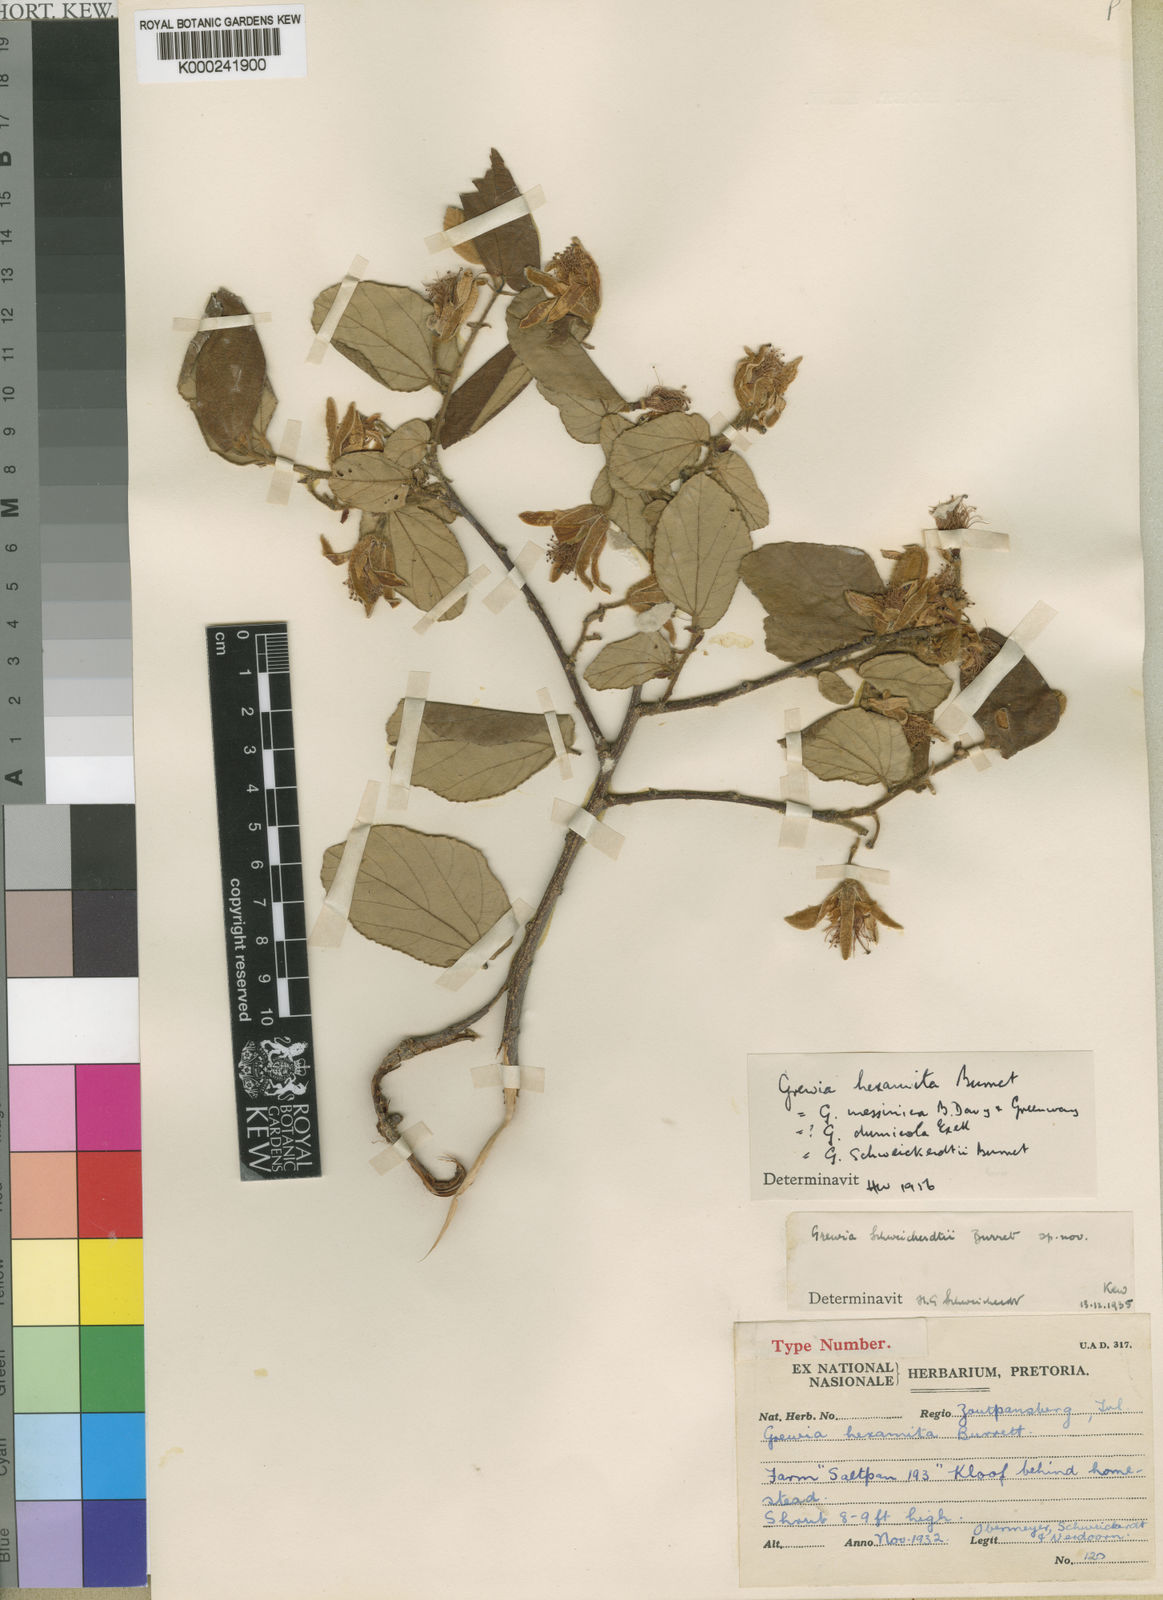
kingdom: Plantae
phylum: Tracheophyta
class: Magnoliopsida
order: Malvales
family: Malvaceae
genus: Grewia
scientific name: Grewia hexamita
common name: Giant raisin
